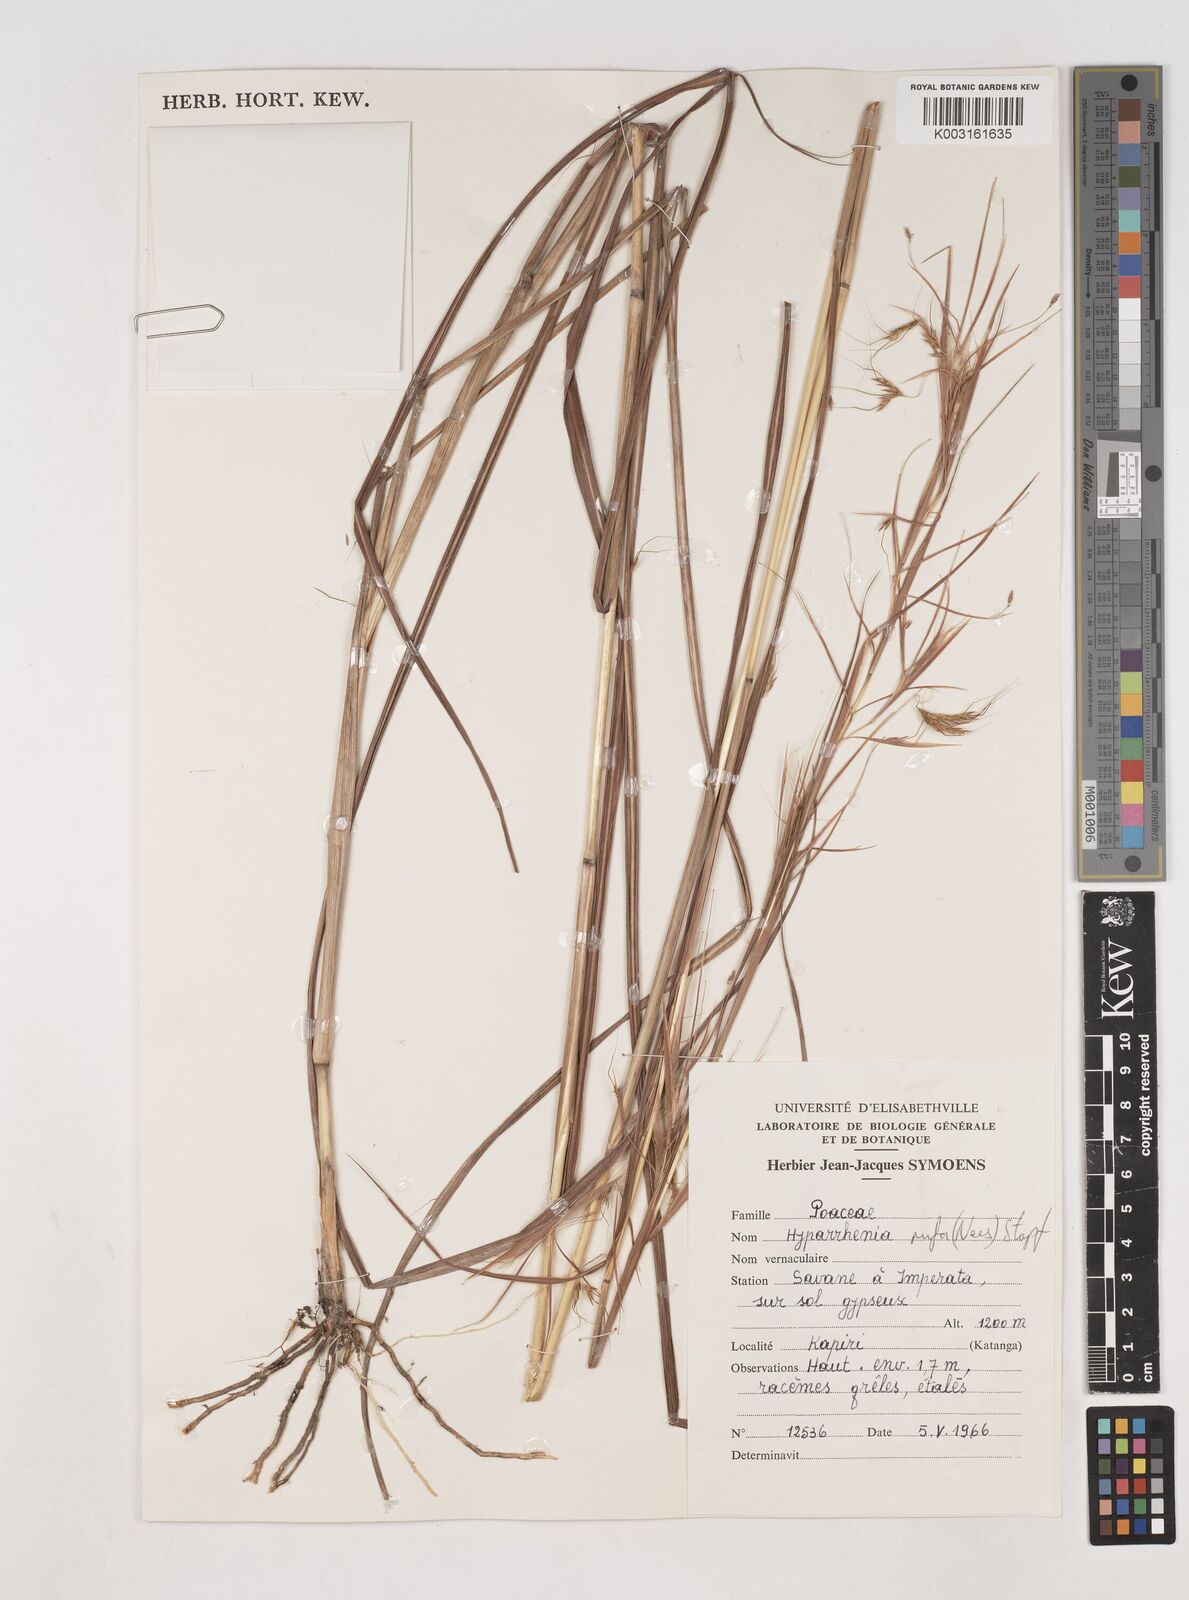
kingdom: Plantae
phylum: Tracheophyta
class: Liliopsida
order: Poales
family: Poaceae
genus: Hyparrhenia
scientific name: Hyparrhenia rufa
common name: Jaraguagrass
